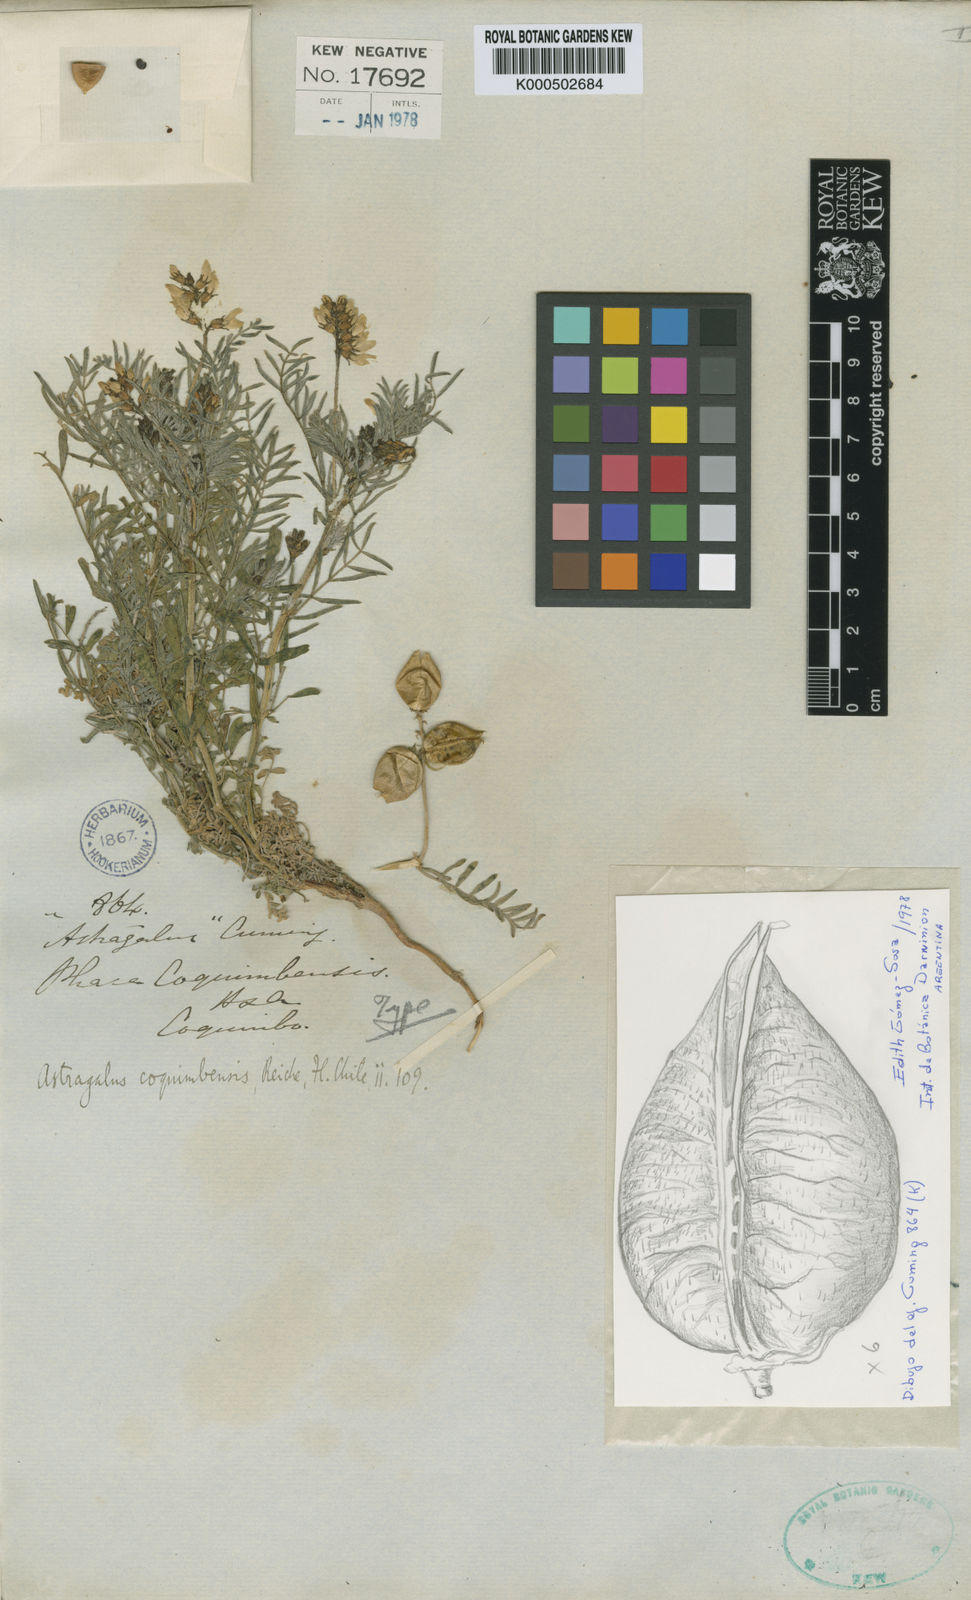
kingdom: Plantae
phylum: Tracheophyta
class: Magnoliopsida
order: Fabales
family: Fabaceae
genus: Astragalus
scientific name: Astragalus coquimbensis
